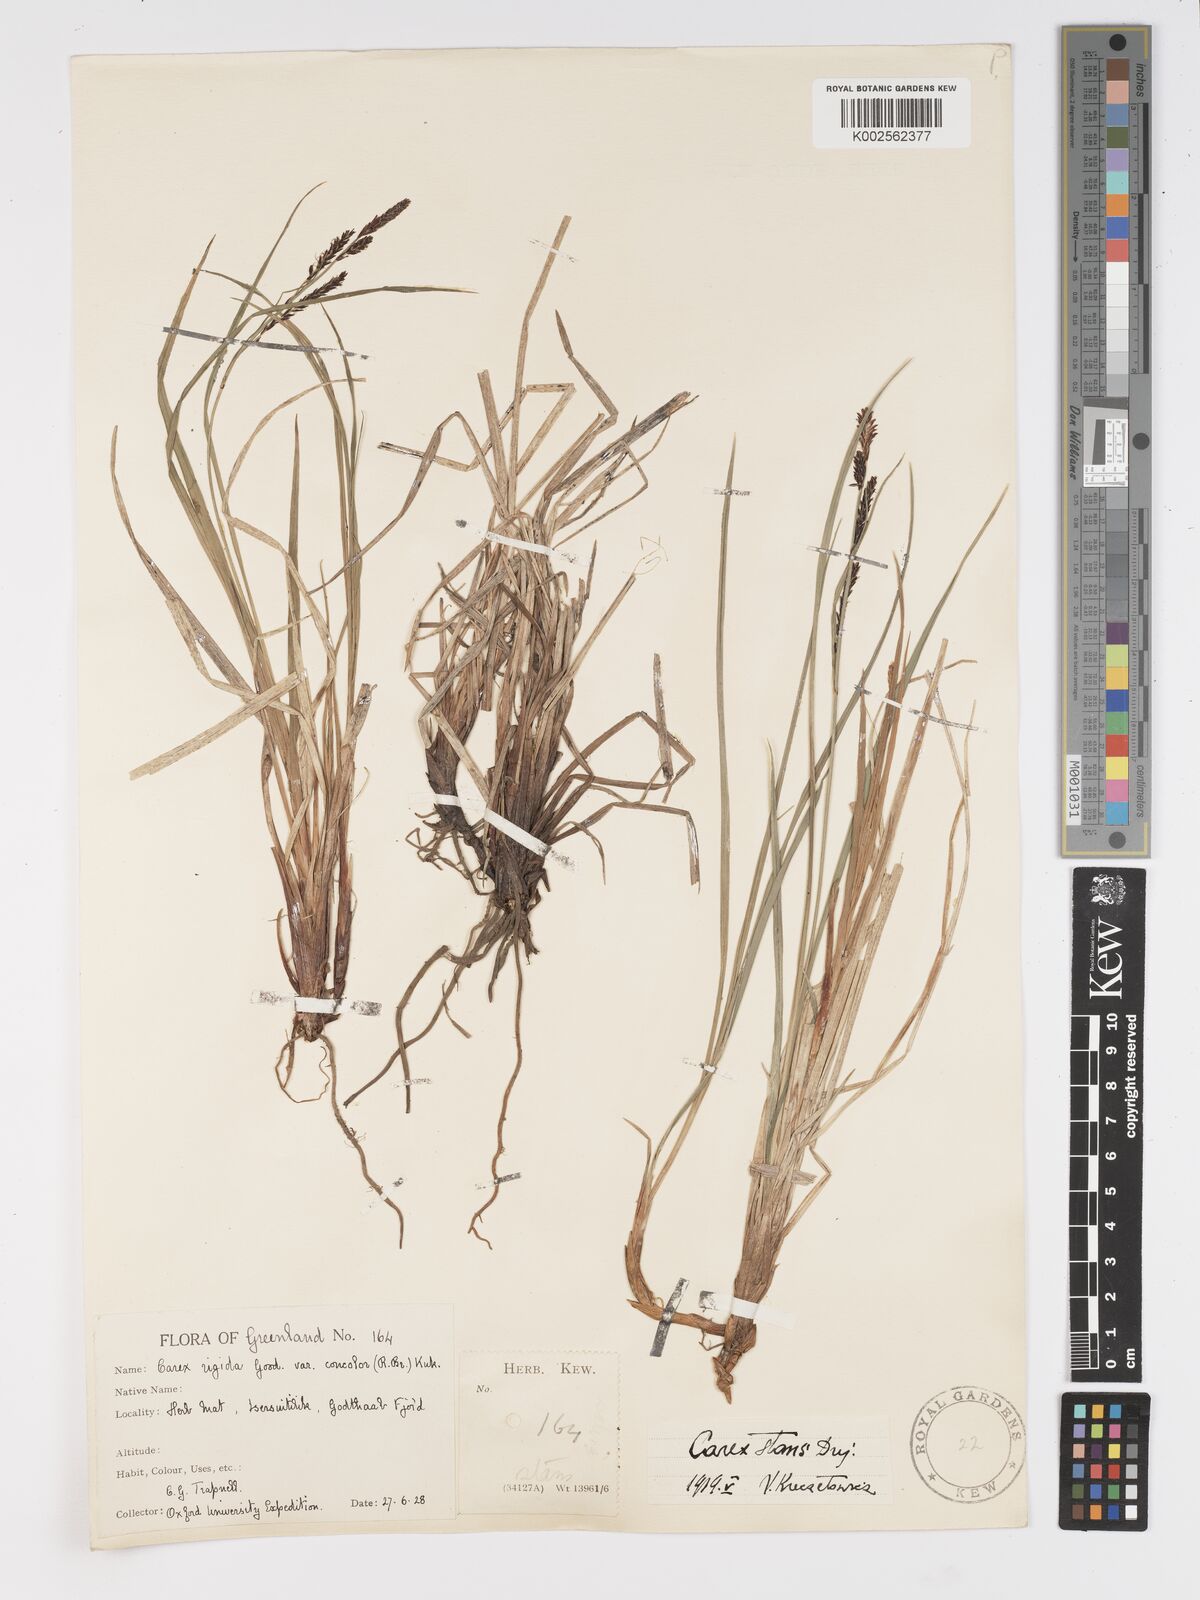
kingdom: Plantae
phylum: Tracheophyta
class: Liliopsida
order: Poales
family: Cyperaceae
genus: Carex
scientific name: Carex aquatilis
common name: Water sedge
